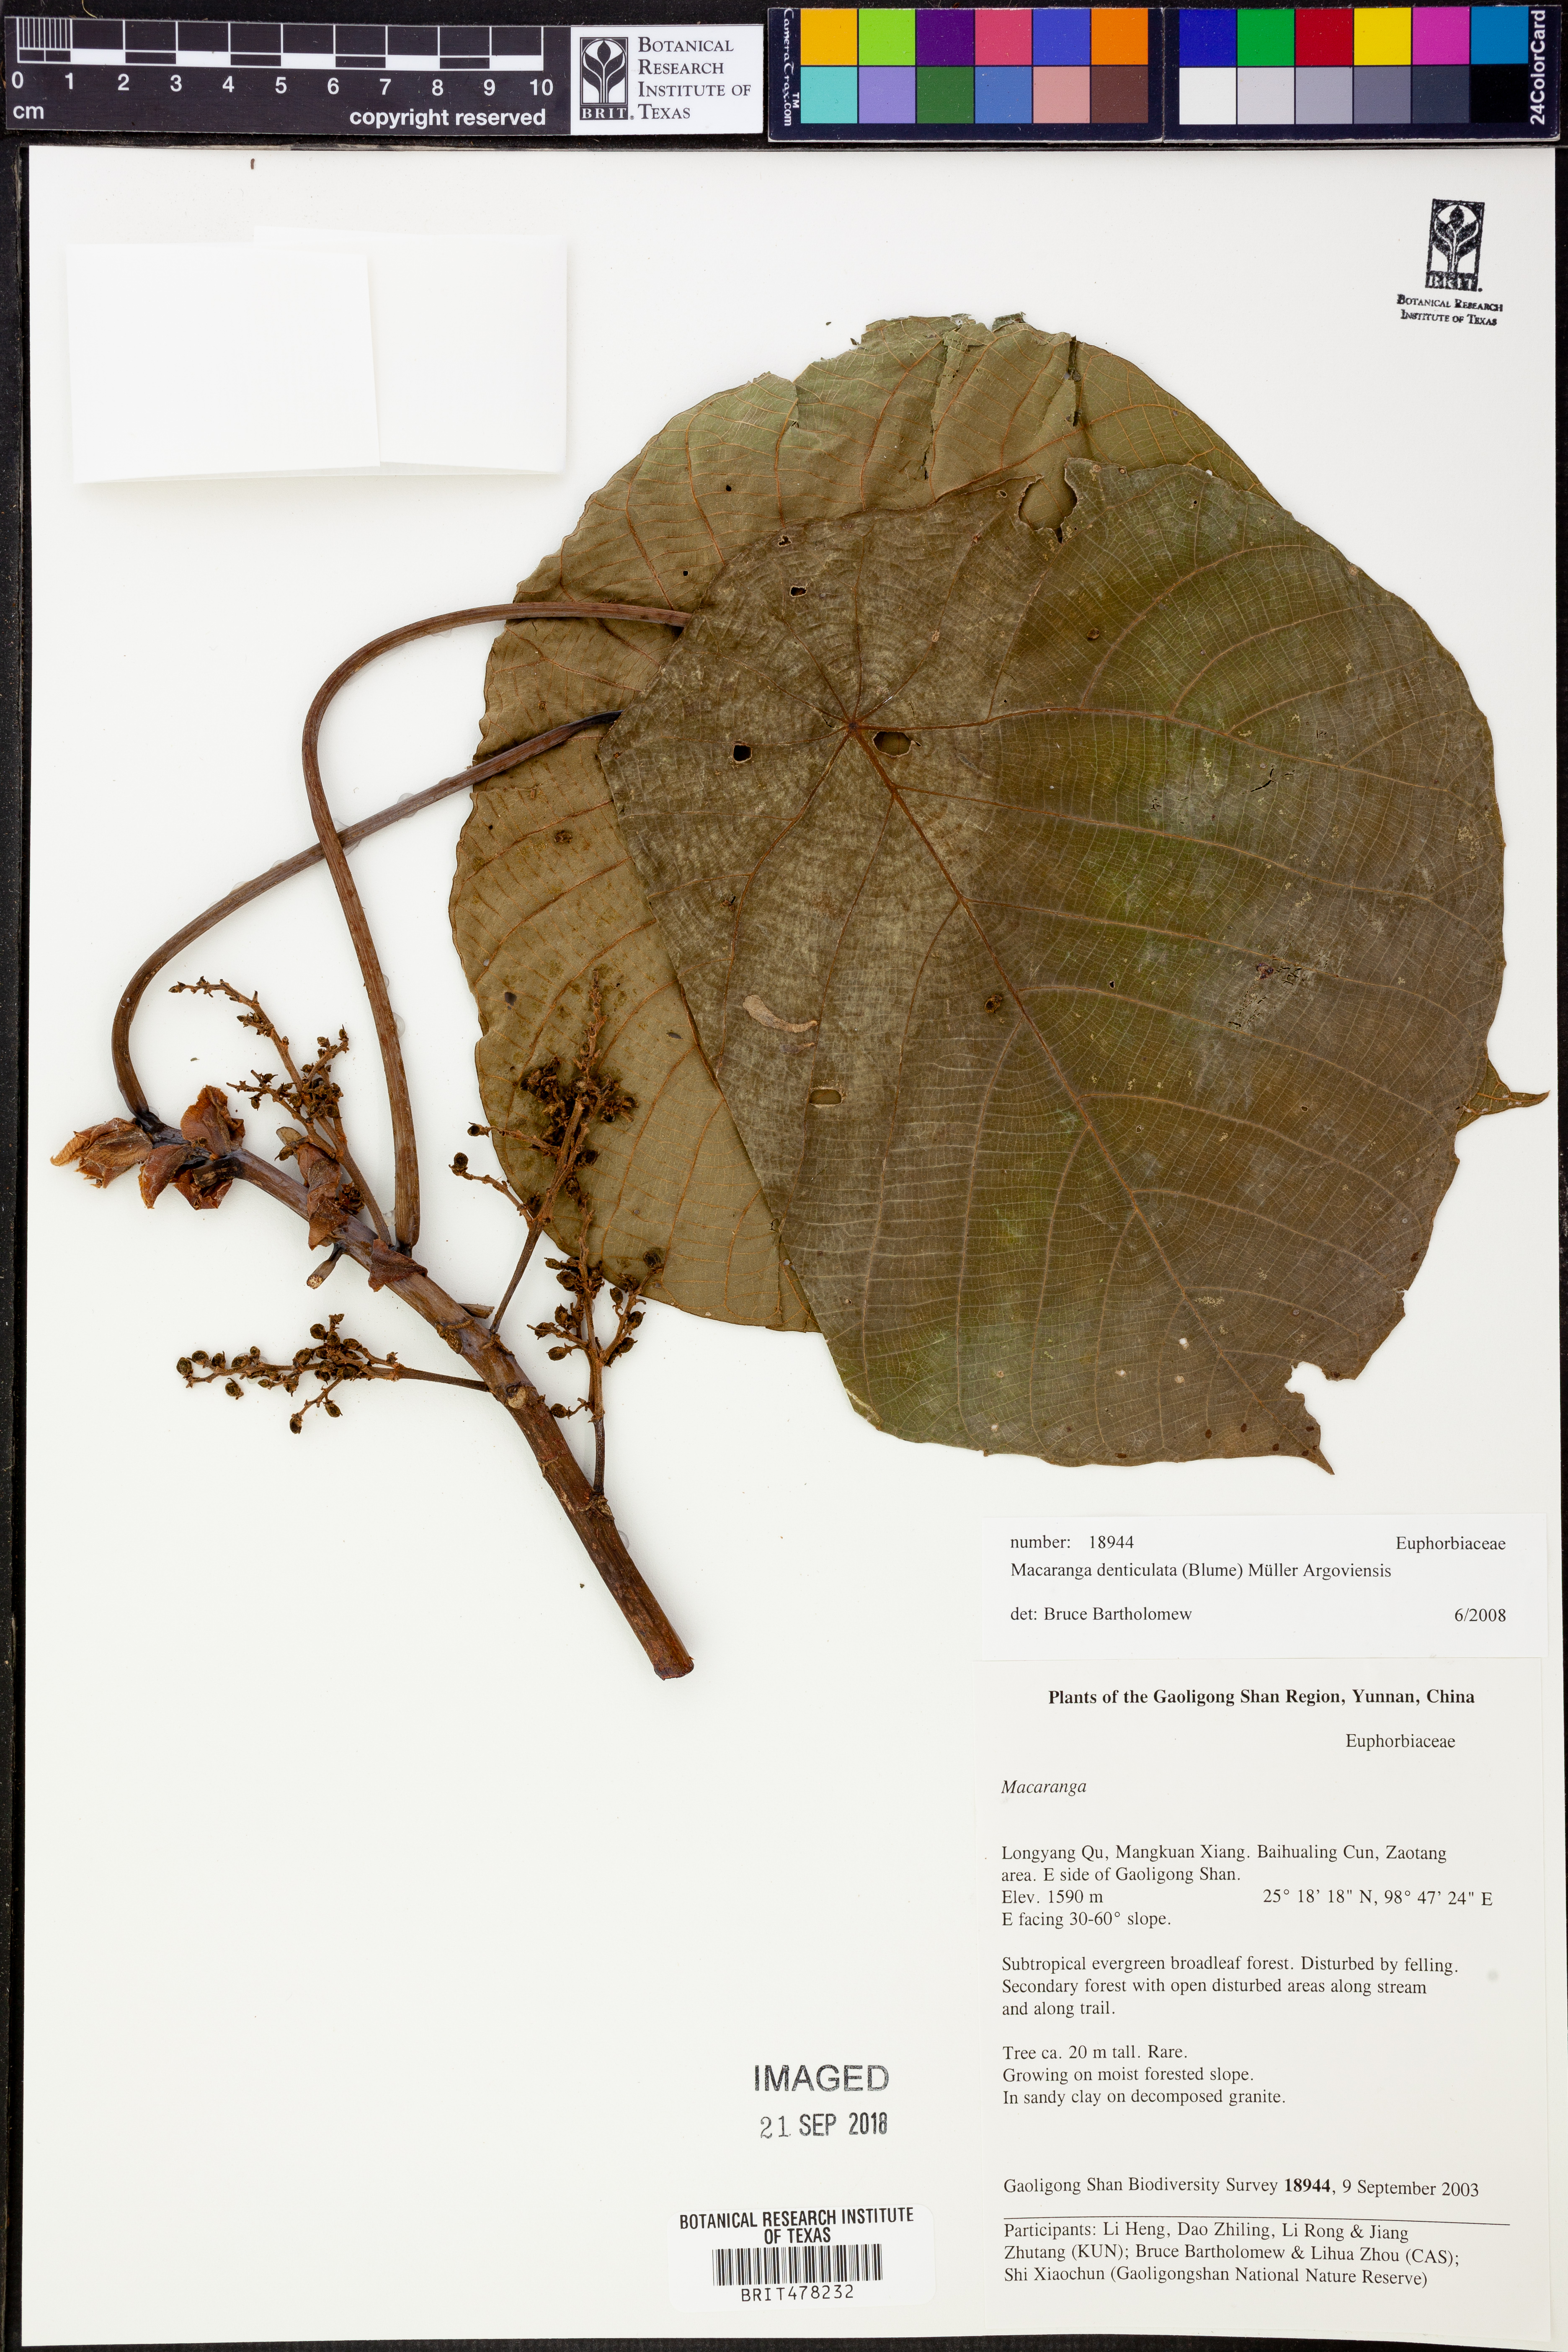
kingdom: Plantae
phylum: Tracheophyta
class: Magnoliopsida
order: Malpighiales
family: Euphorbiaceae
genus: Macaranga
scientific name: Macaranga denticulata
